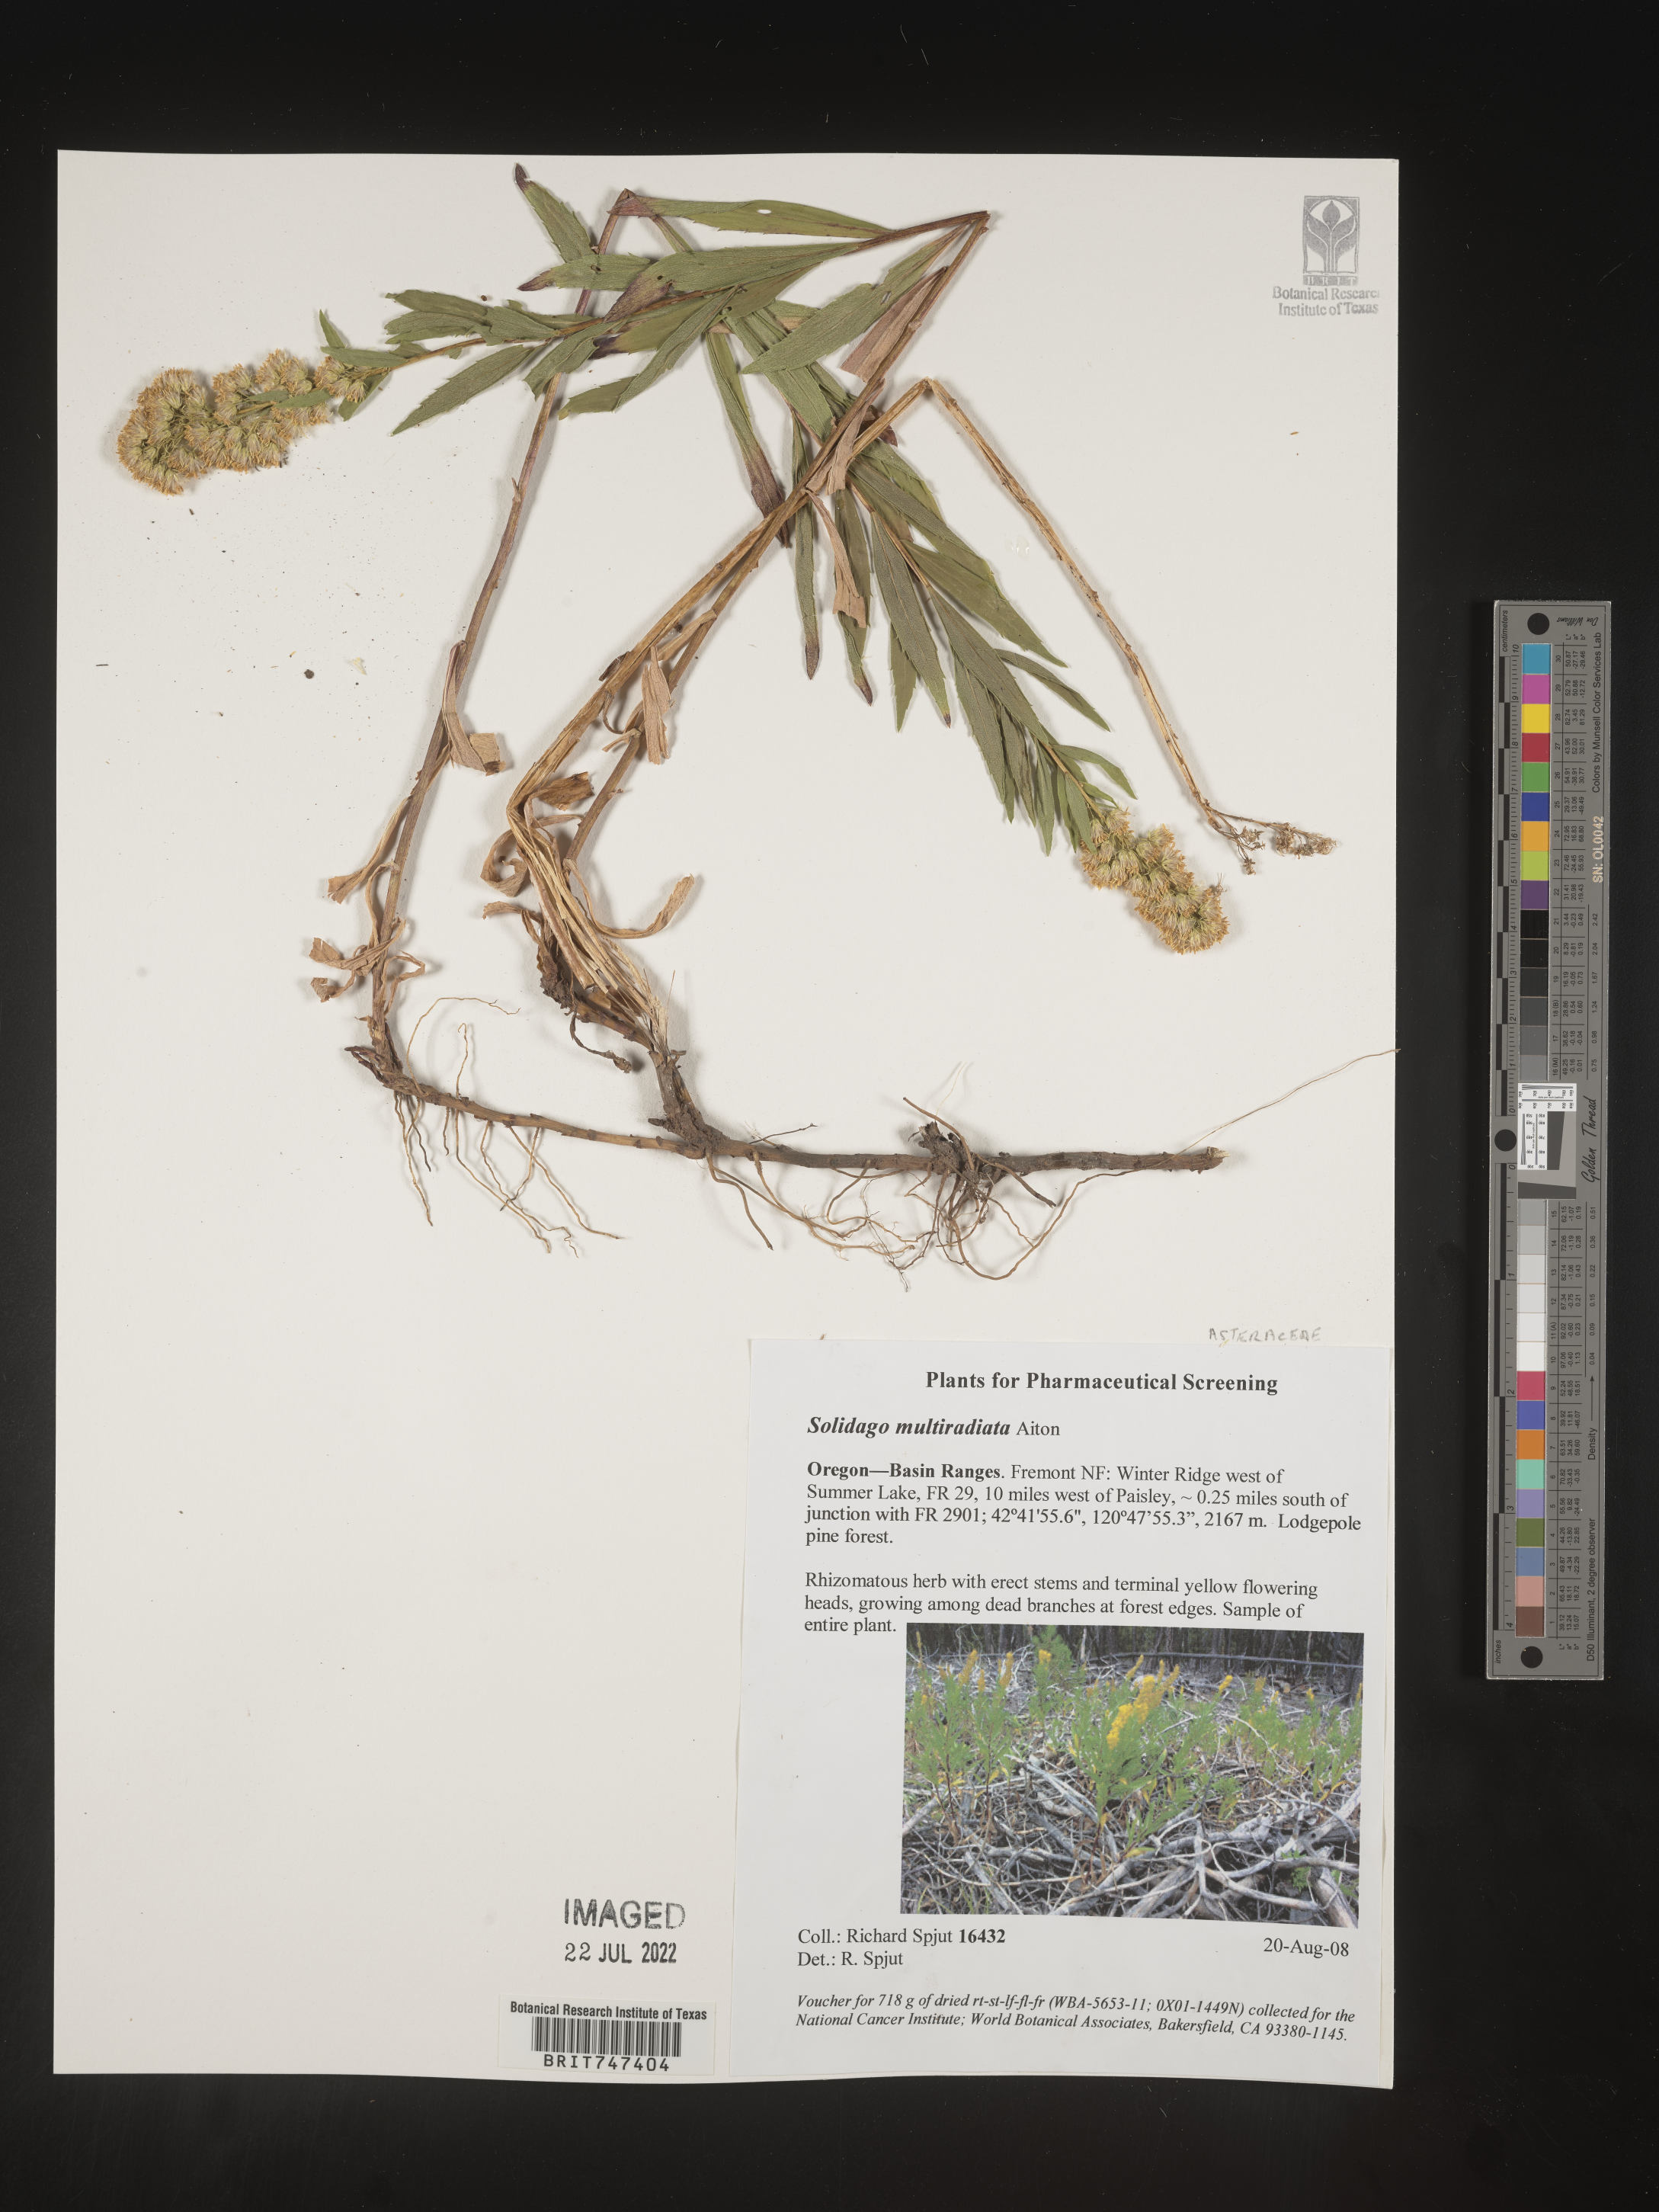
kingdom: Plantae
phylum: Tracheophyta
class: Magnoliopsida
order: Asterales
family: Asteraceae
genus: Solidago
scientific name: Solidago multiradiata
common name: Northern goldenrod
